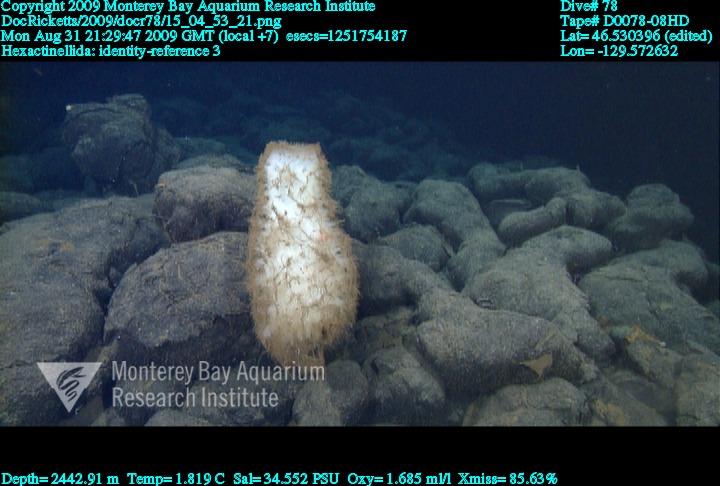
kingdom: Animalia
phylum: Porifera
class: Hexactinellida
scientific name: Hexactinellida
